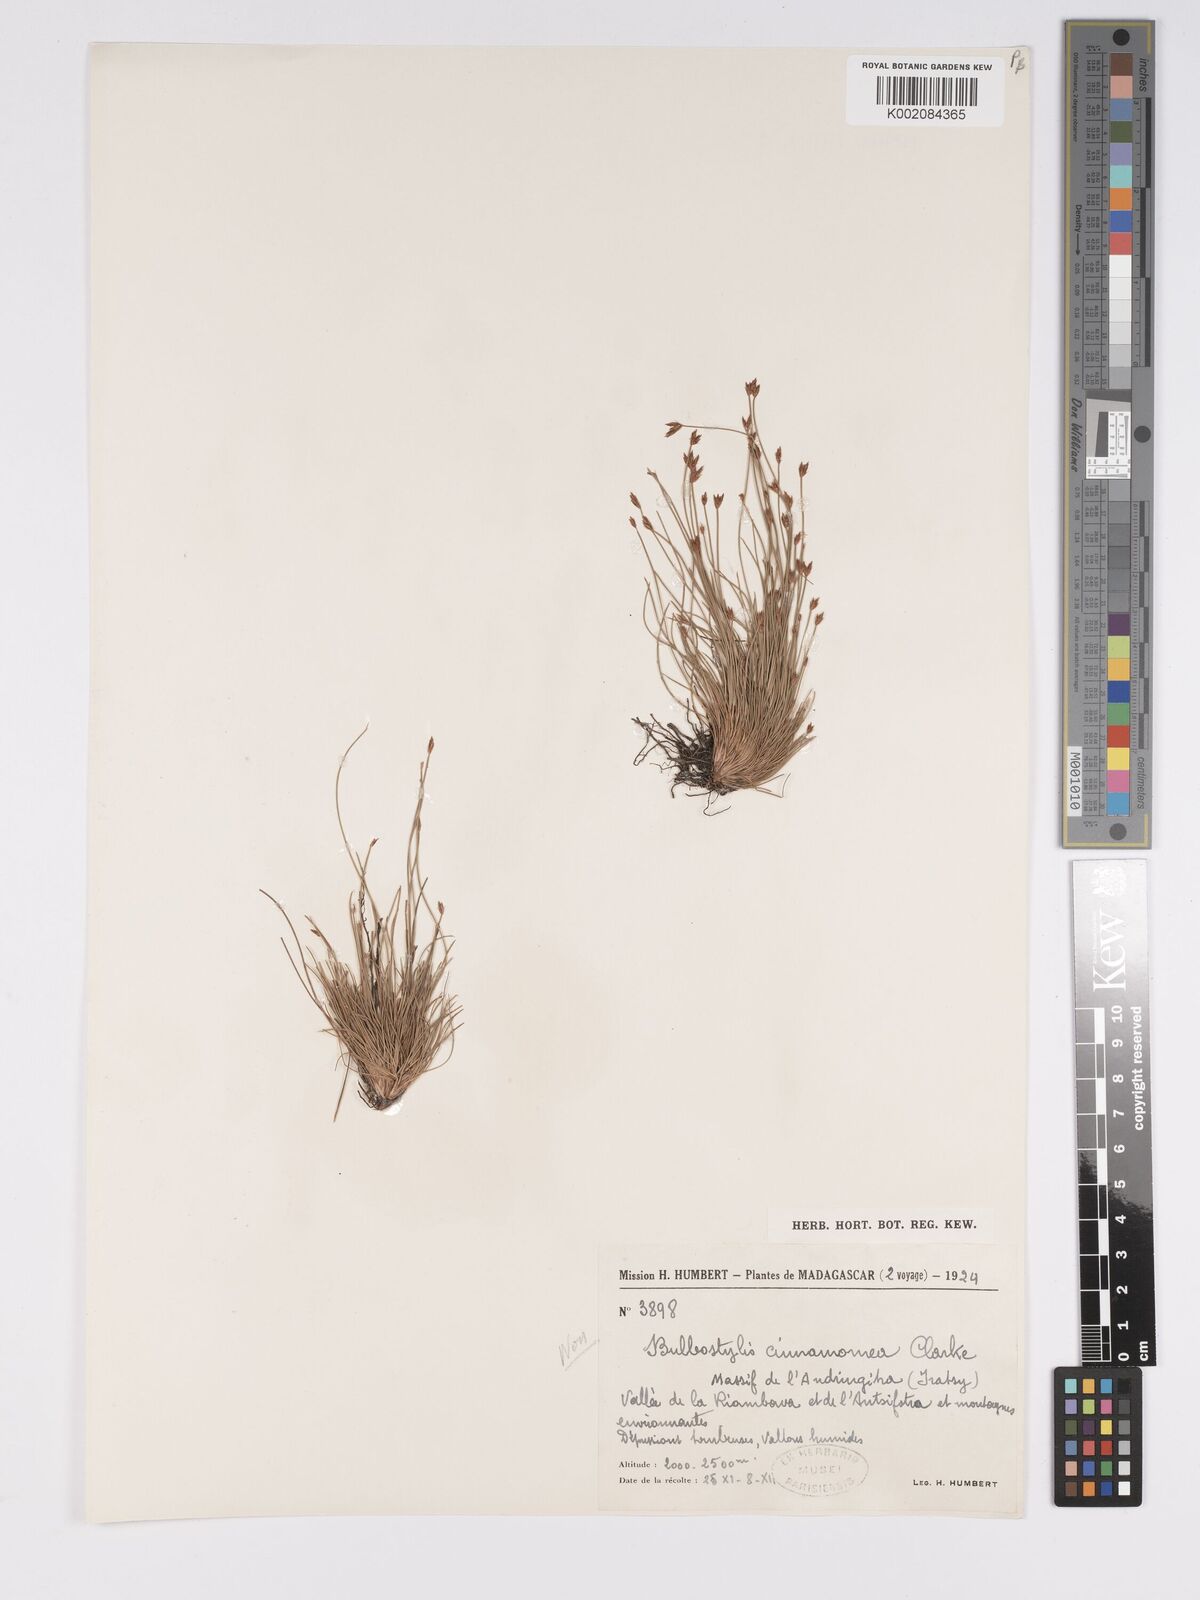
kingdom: Plantae
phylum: Tracheophyta
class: Liliopsida
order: Poales
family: Cyperaceae
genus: Bulbostylis
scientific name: Bulbostylis
